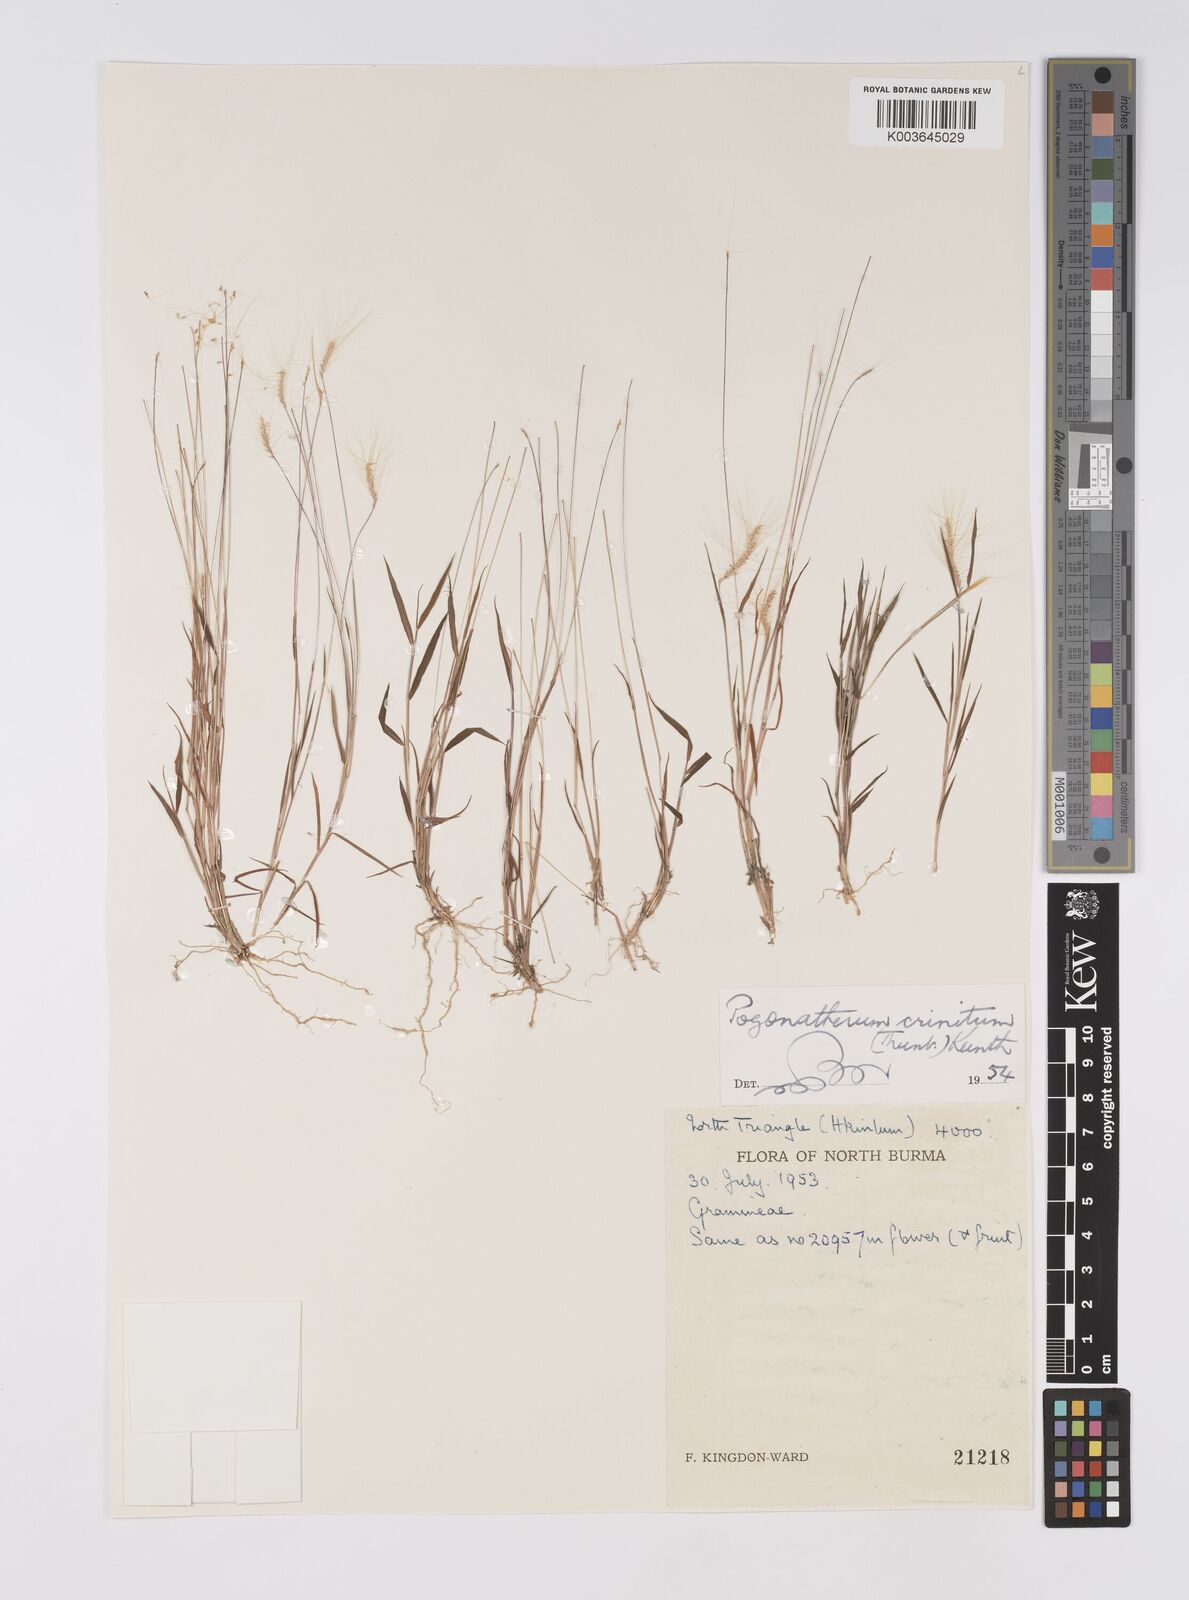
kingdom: Plantae
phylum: Tracheophyta
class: Liliopsida
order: Poales
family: Poaceae
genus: Pogonatherum
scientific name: Pogonatherum crinitum
